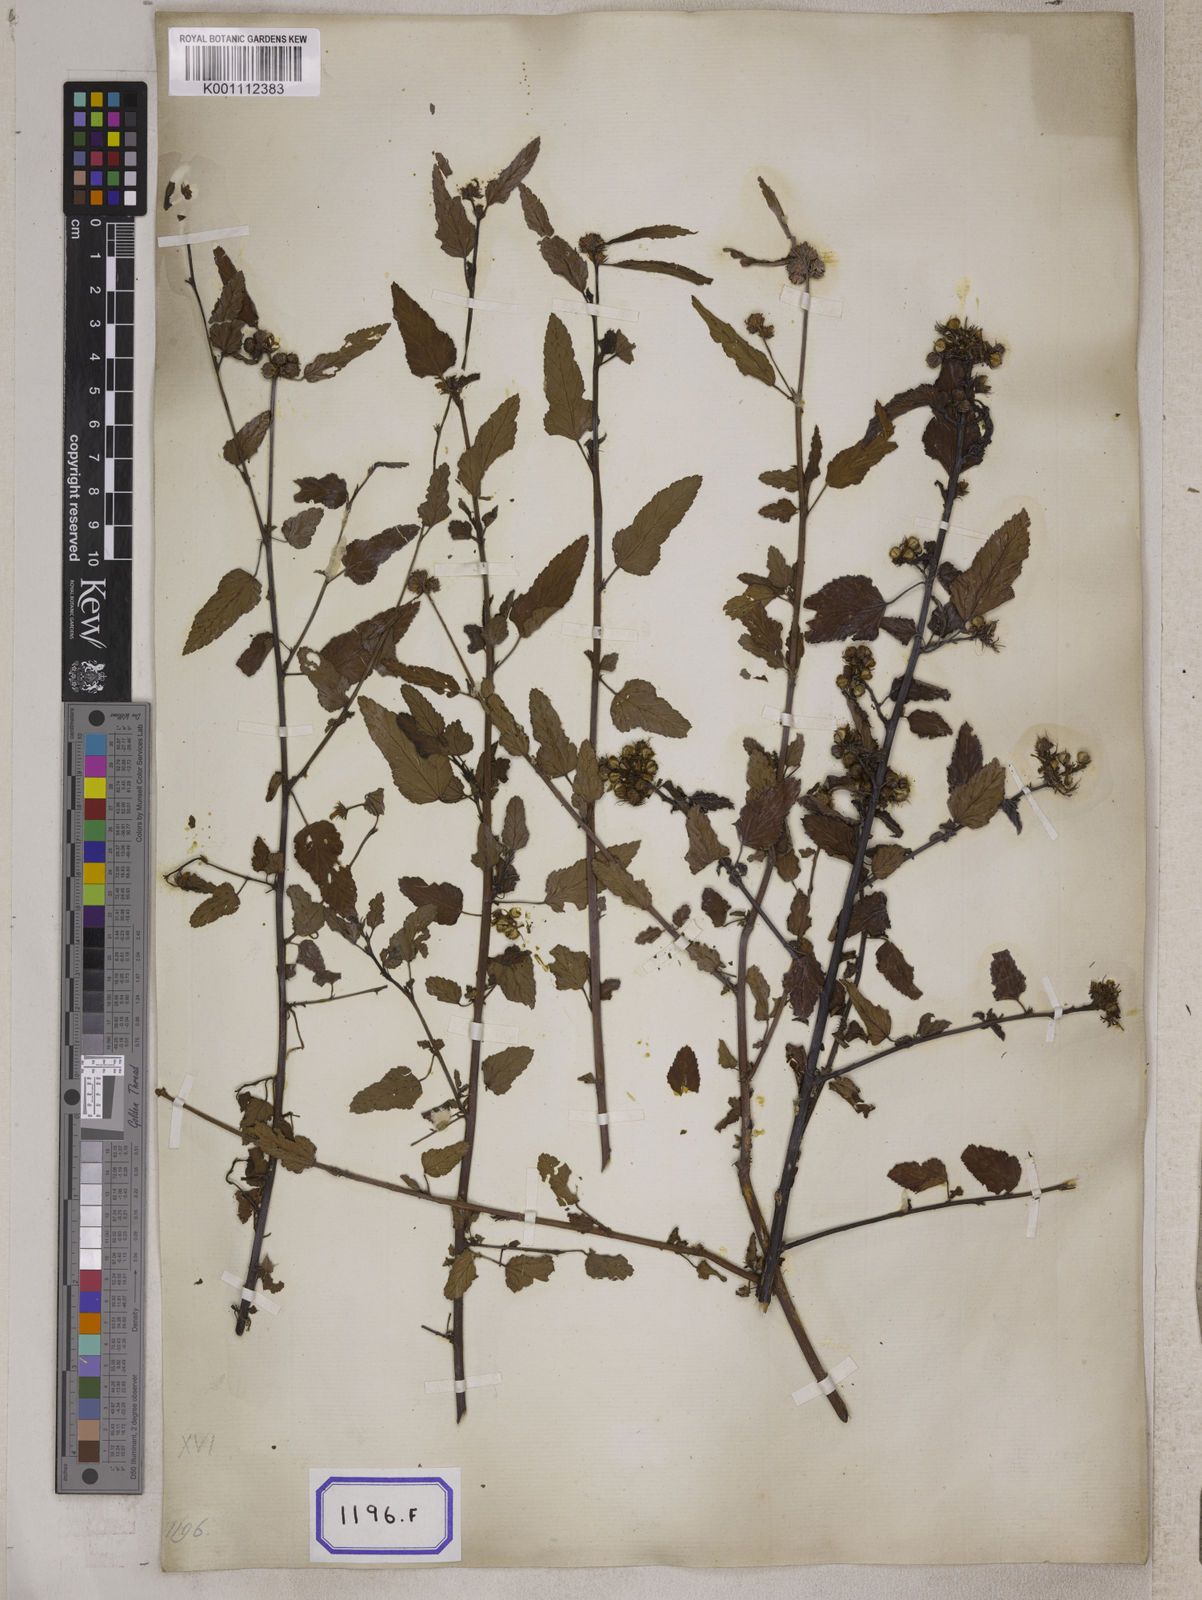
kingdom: Plantae
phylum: Tracheophyta
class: Magnoliopsida
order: Malvales
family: Malvaceae
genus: Melochia
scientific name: Melochia corchorifolia
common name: Chocolateweed
